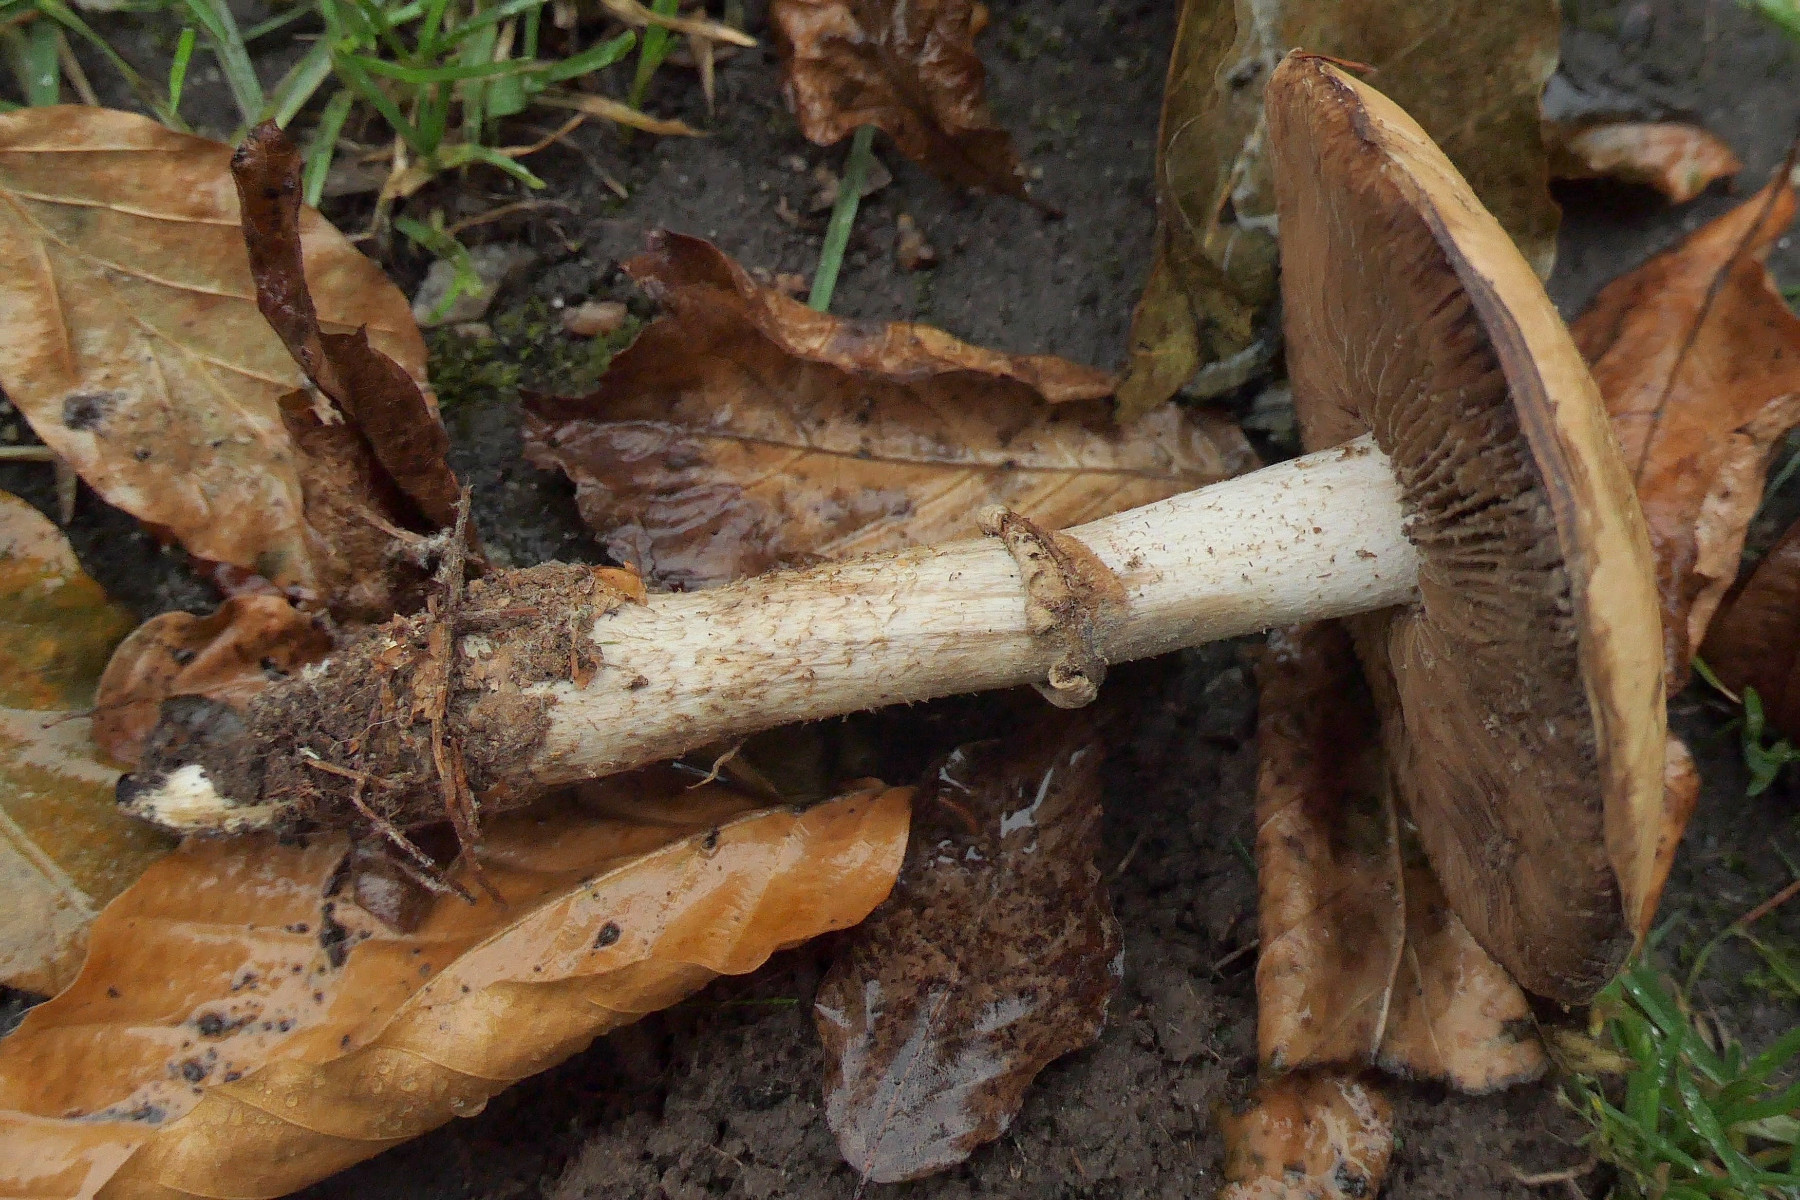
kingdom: Fungi
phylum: Basidiomycota
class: Agaricomycetes
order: Agaricales
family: Hymenogastraceae
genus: Hebeloma
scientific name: Hebeloma radicosum
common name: pælerods-tåreblad
